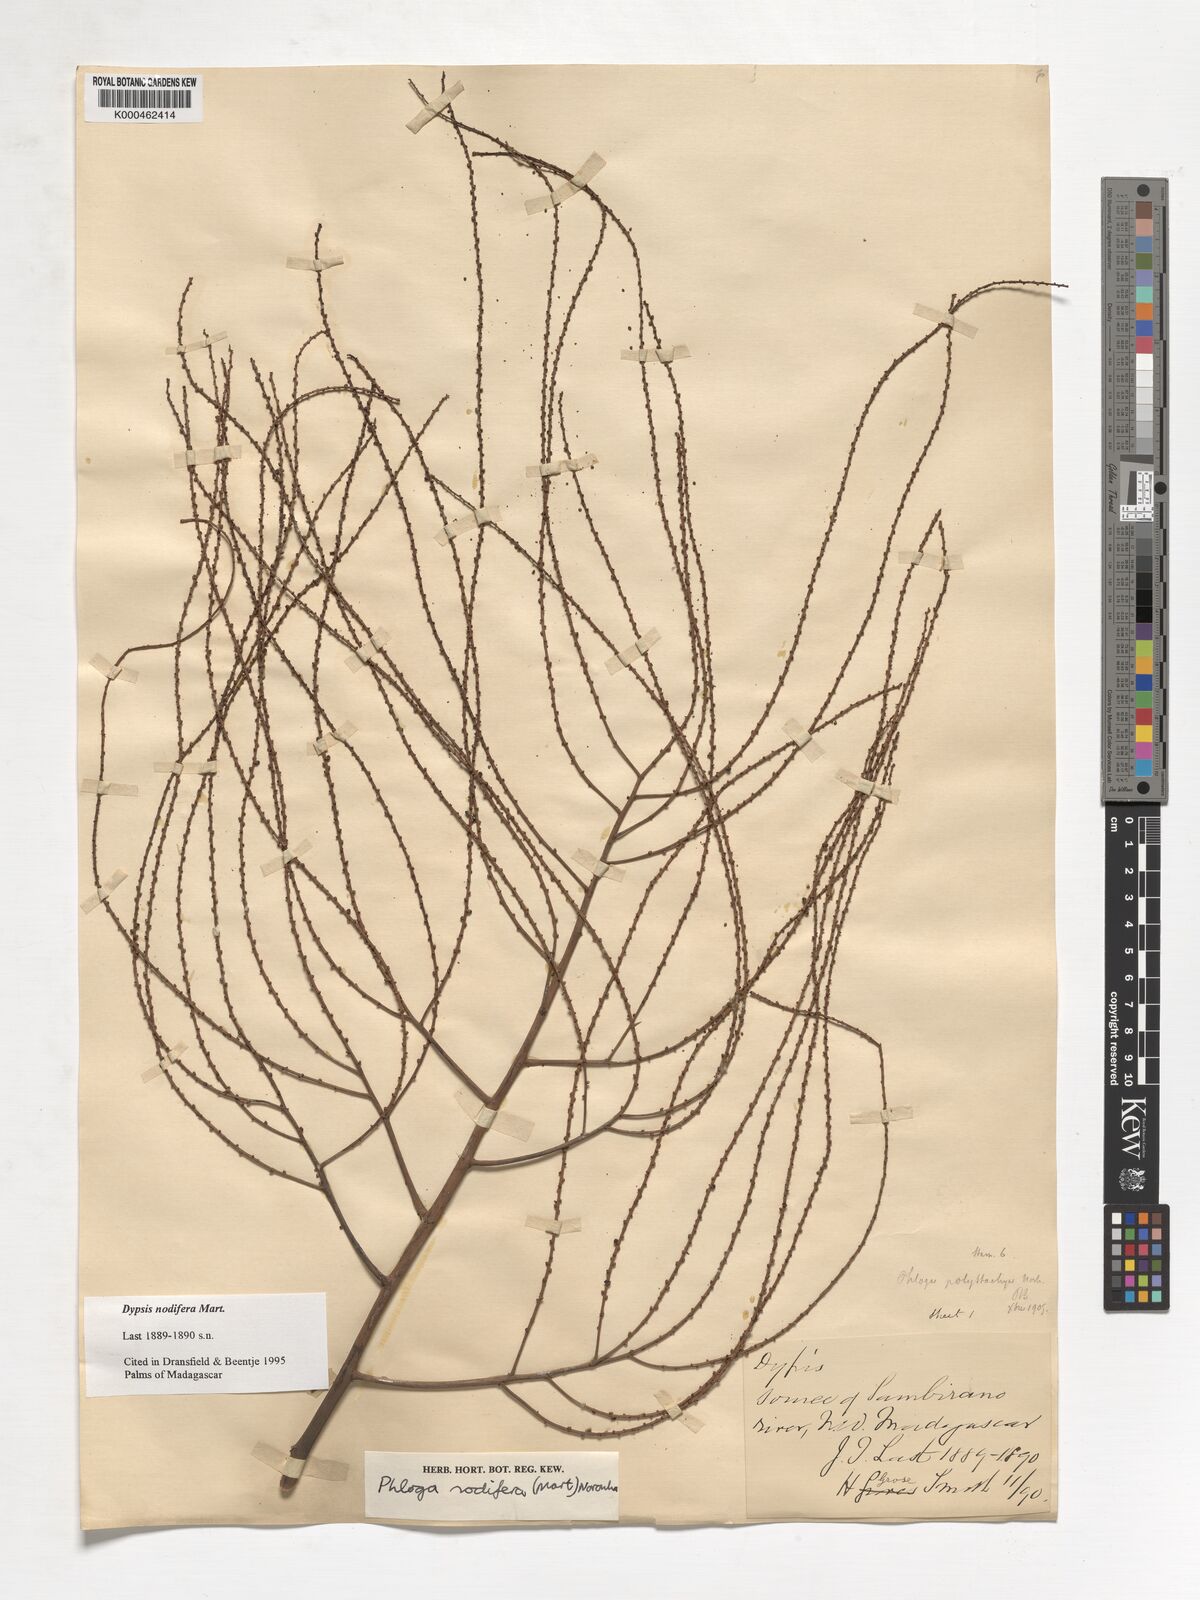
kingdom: Plantae
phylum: Tracheophyta
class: Liliopsida
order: Arecales
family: Arecaceae
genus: Dypsis
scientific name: Dypsis nodifera
